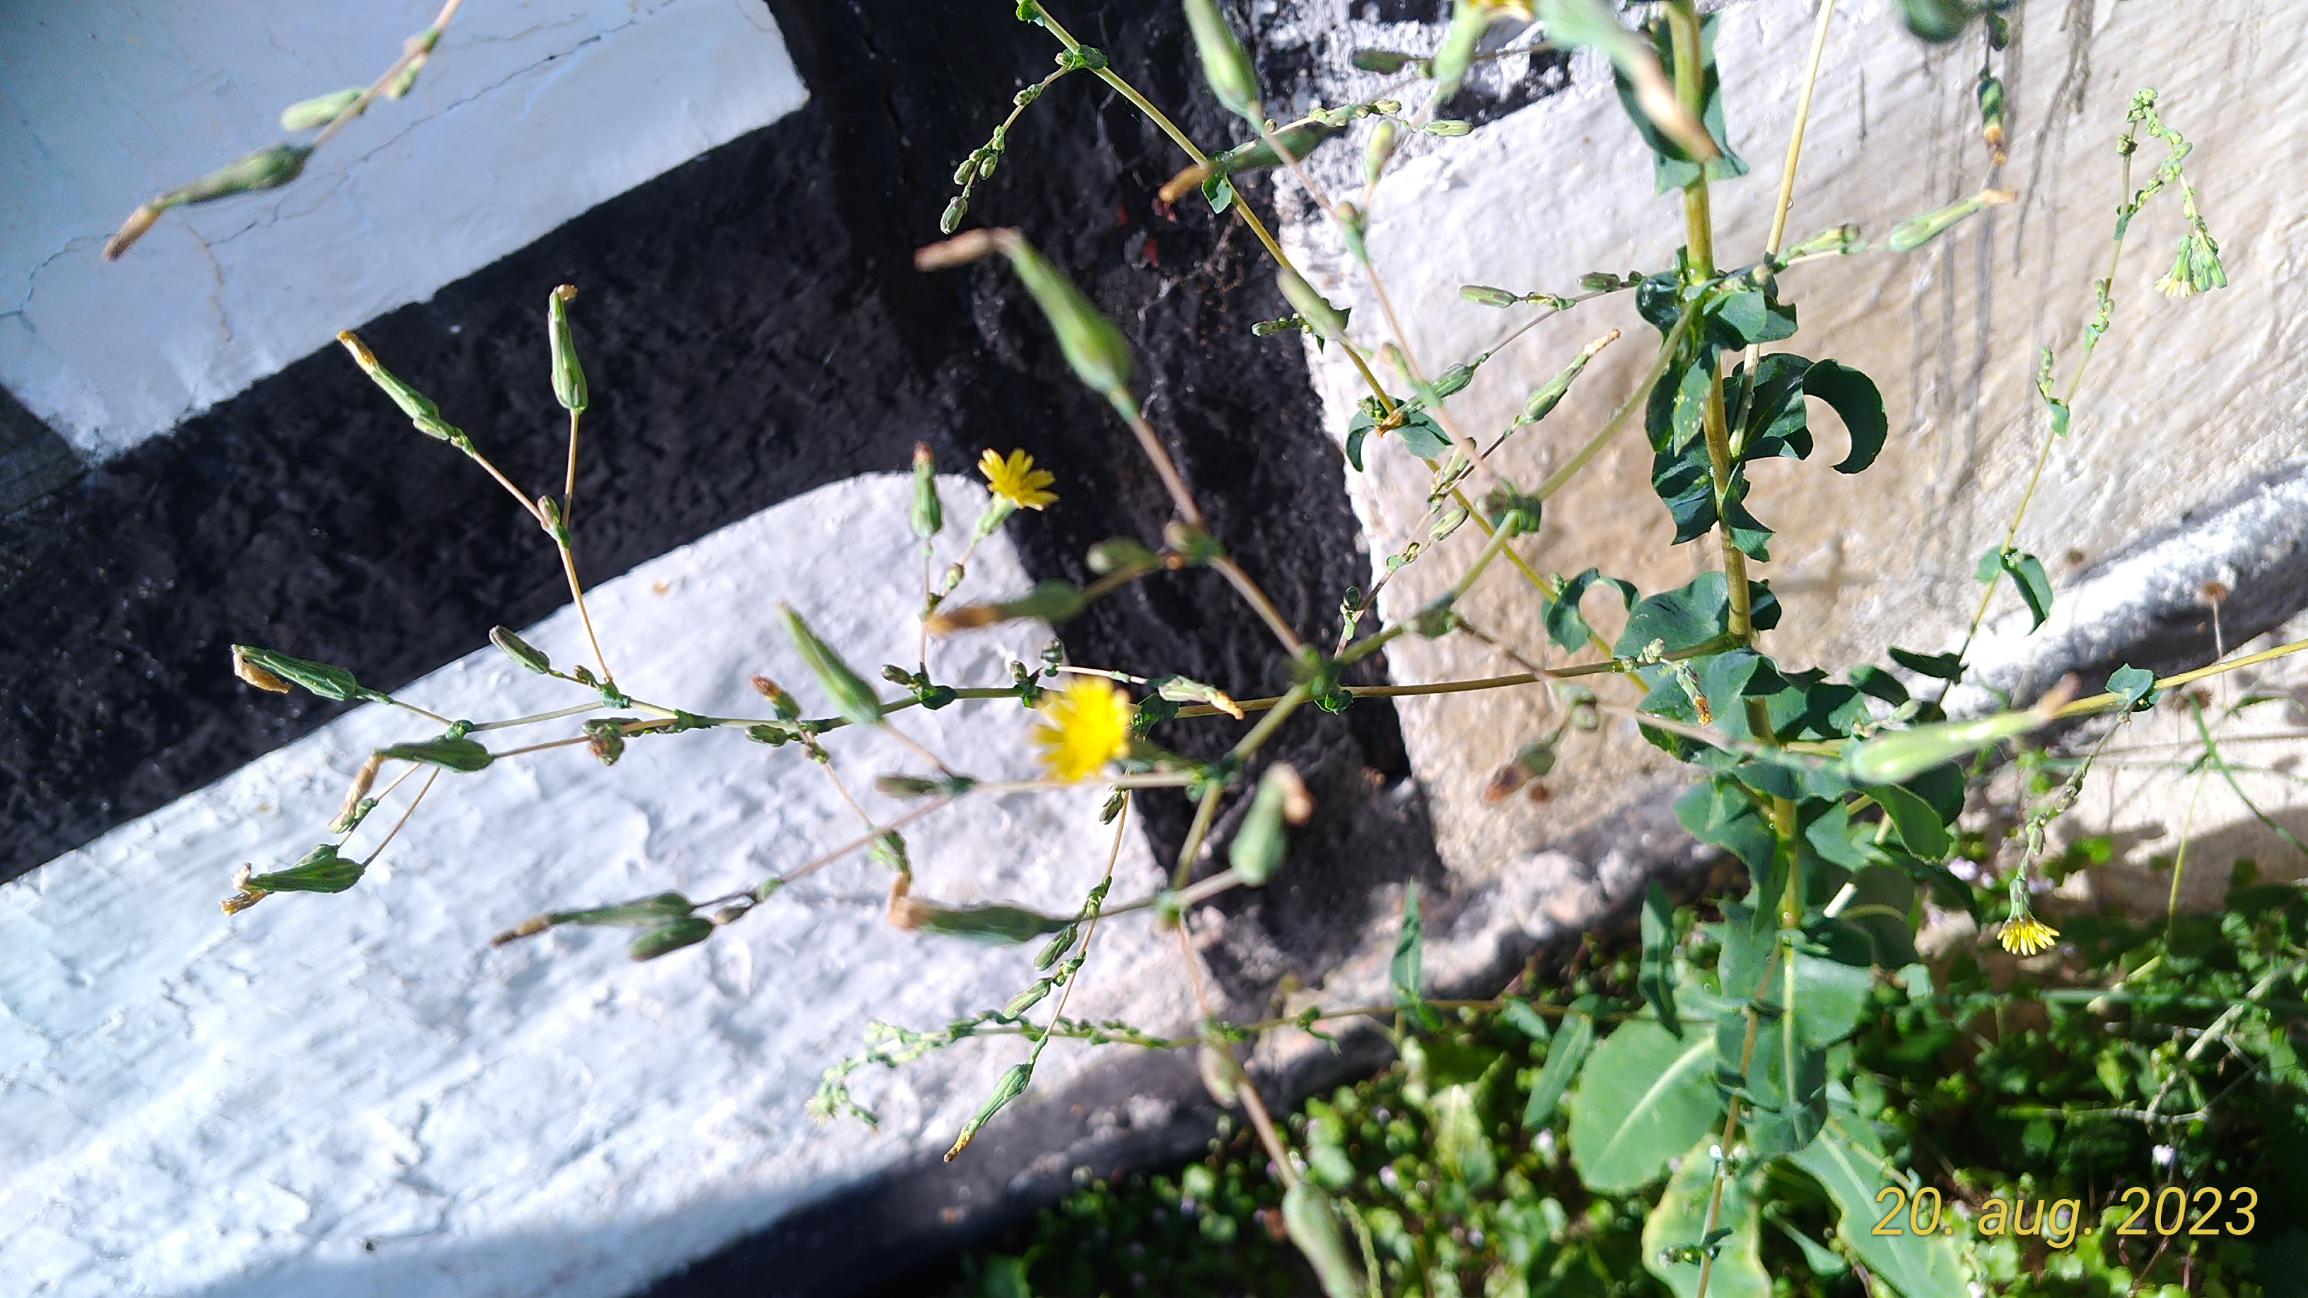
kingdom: Plantae
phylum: Tracheophyta
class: Magnoliopsida
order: Asterales
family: Asteraceae
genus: Lactuca
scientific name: Lactuca serriola
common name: Tornet salat
